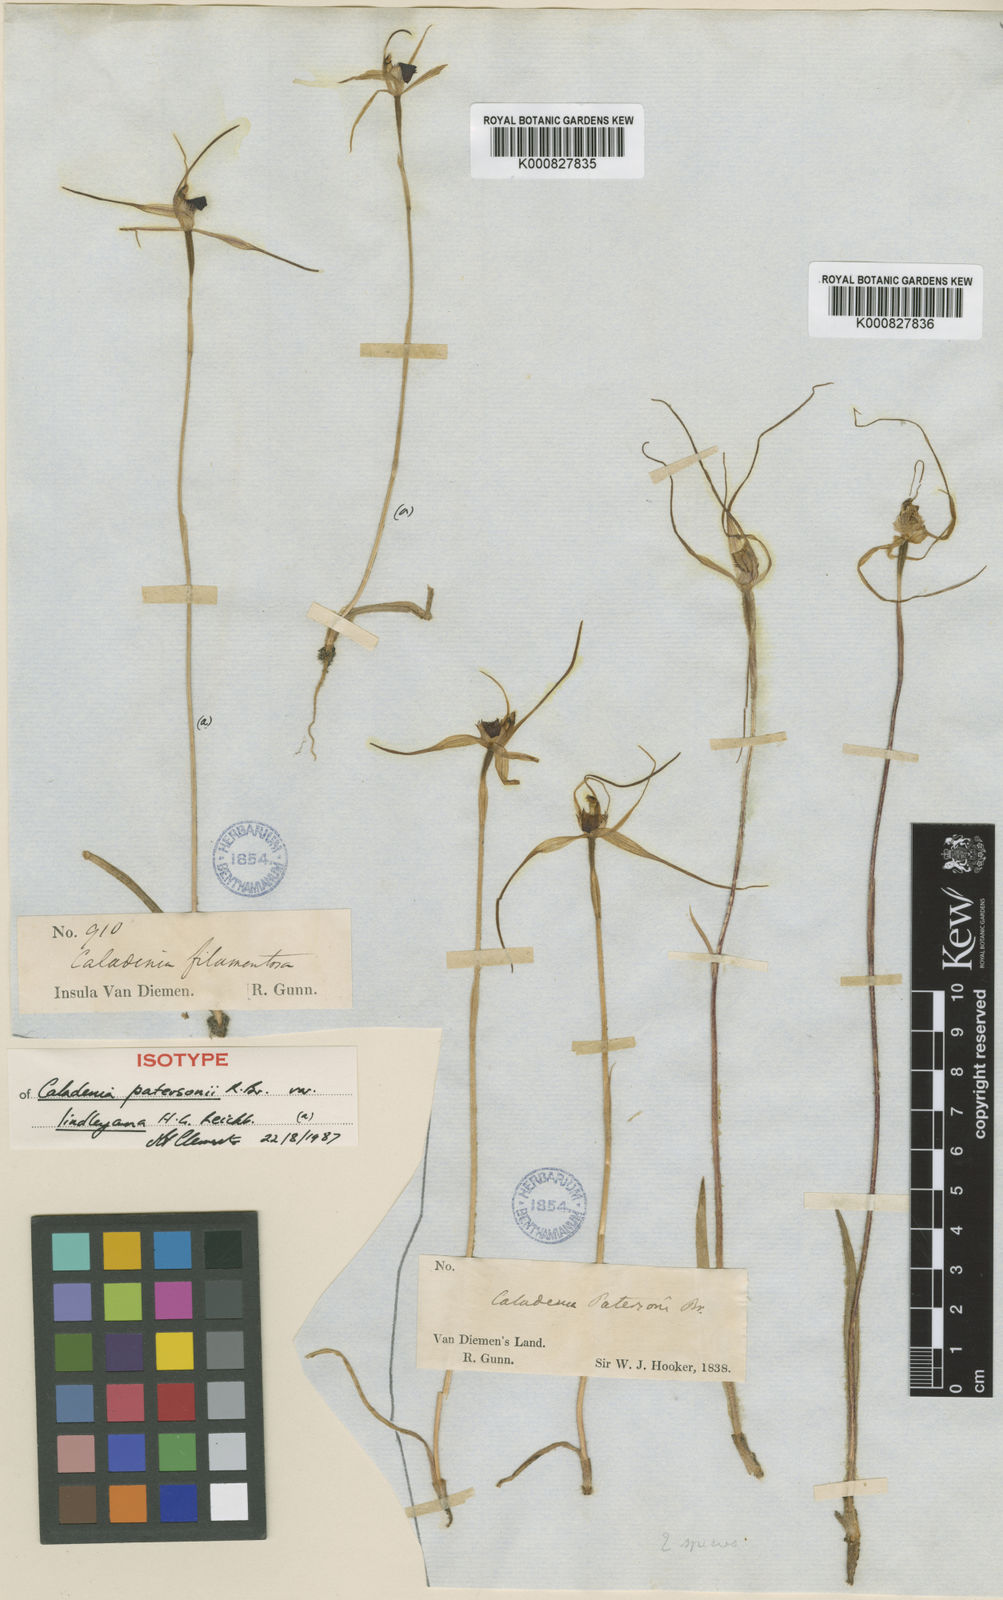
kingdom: Plantae
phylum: Tracheophyta
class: Liliopsida
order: Asparagales
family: Orchidaceae
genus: Caladenia
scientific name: Caladenia lindleyana
